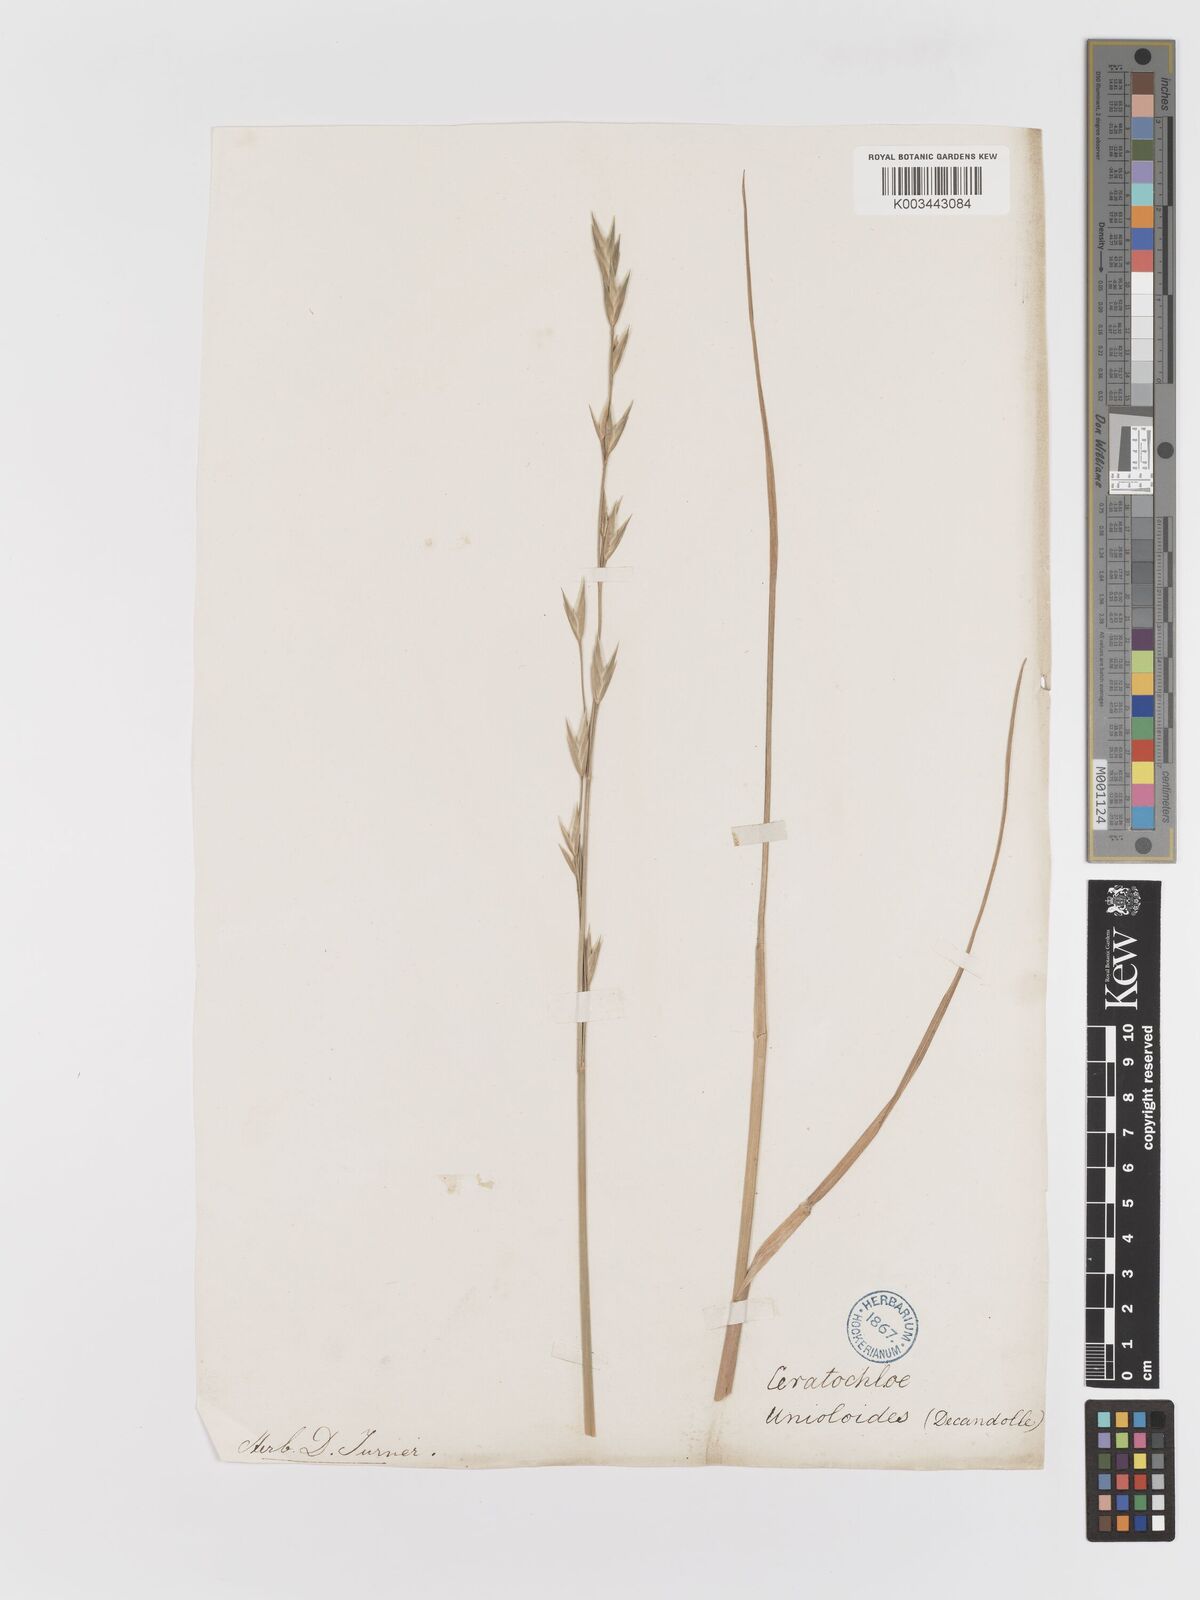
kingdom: Plantae
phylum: Tracheophyta
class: Liliopsida
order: Poales
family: Poaceae
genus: Bromus
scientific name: Bromus catharticus
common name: Rescuegrass
